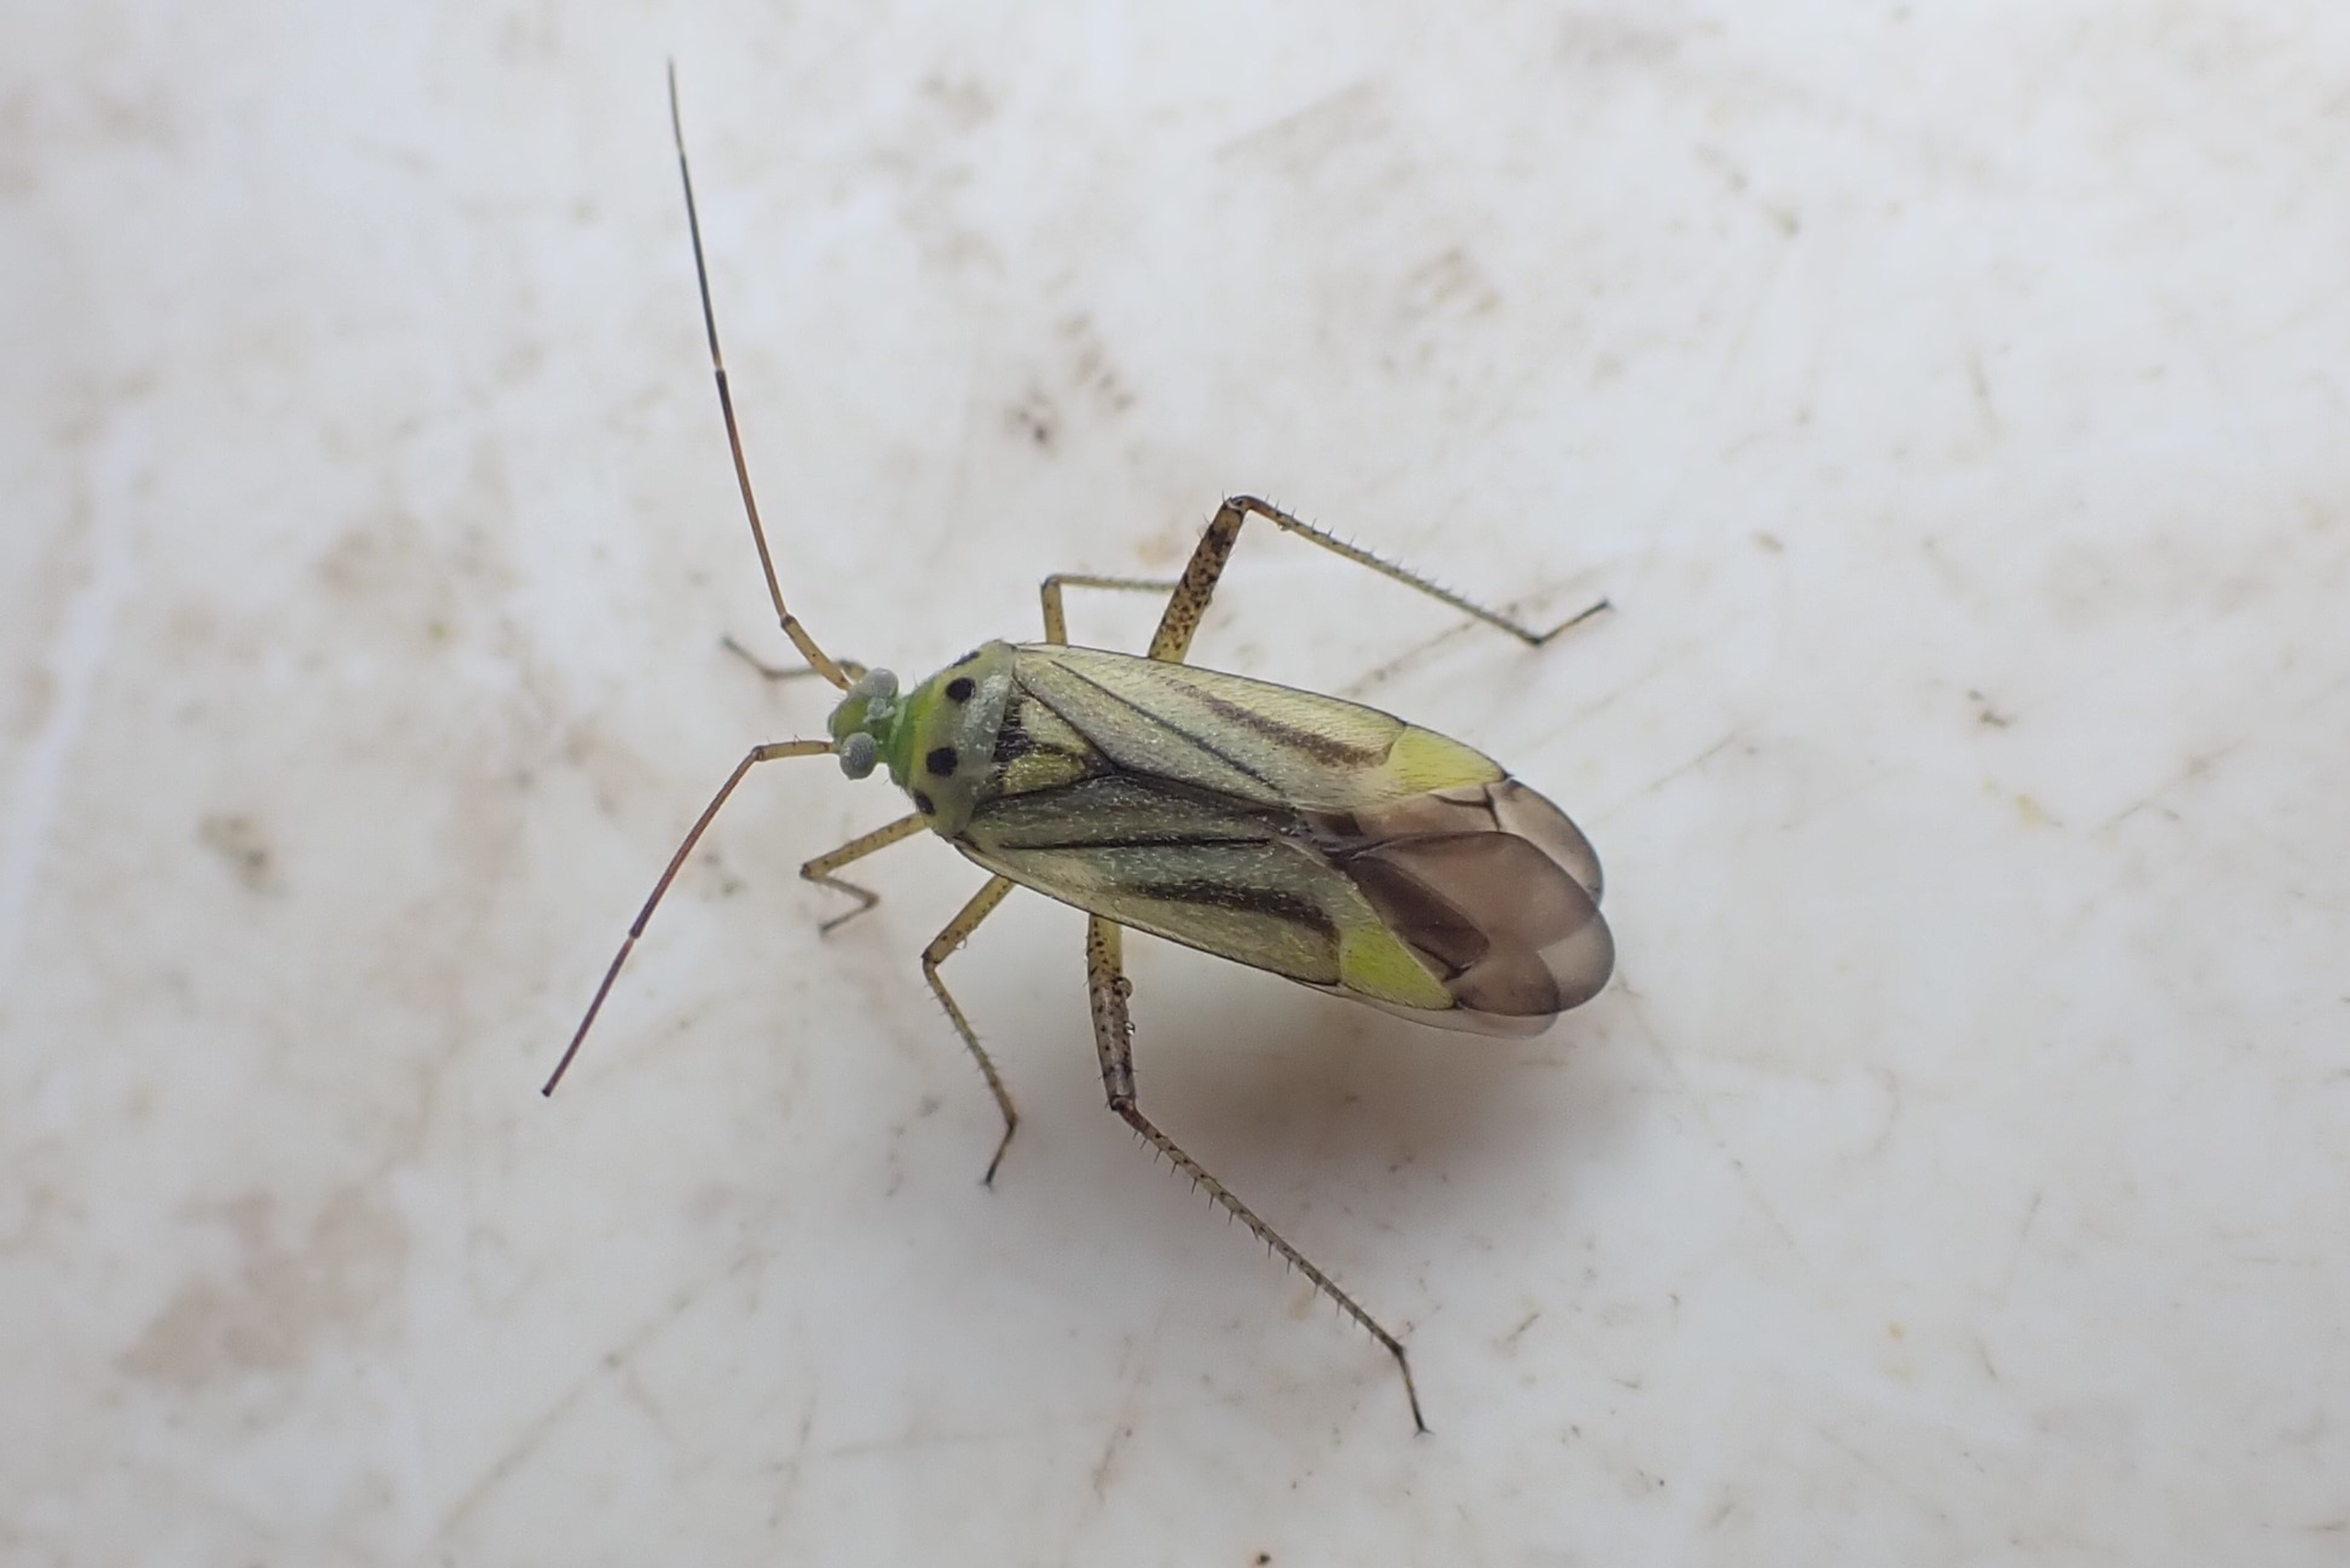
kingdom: Animalia
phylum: Arthropoda
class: Insecta
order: Hemiptera
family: Miridae
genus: Adelphocoris
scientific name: Adelphocoris quadripunctatus
